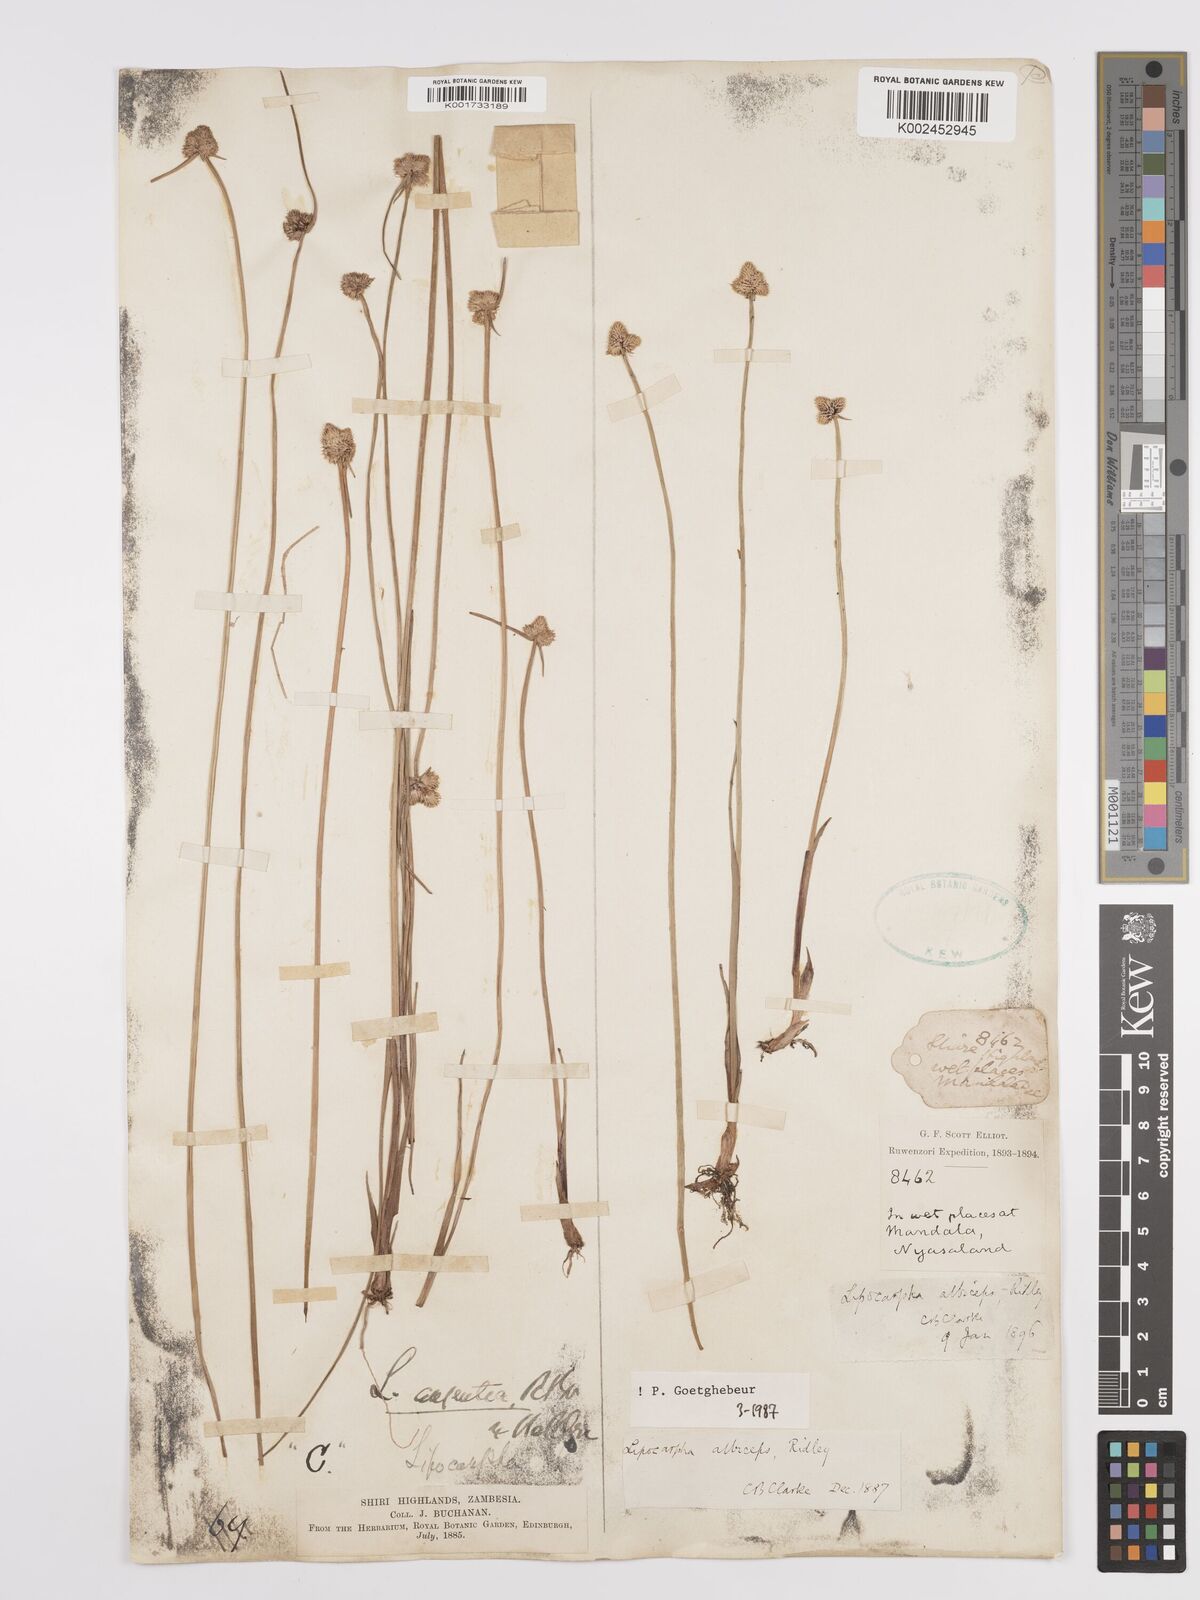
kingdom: Plantae
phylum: Tracheophyta
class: Liliopsida
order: Poales
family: Cyperaceae
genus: Cyperus
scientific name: Cyperus albiceps
